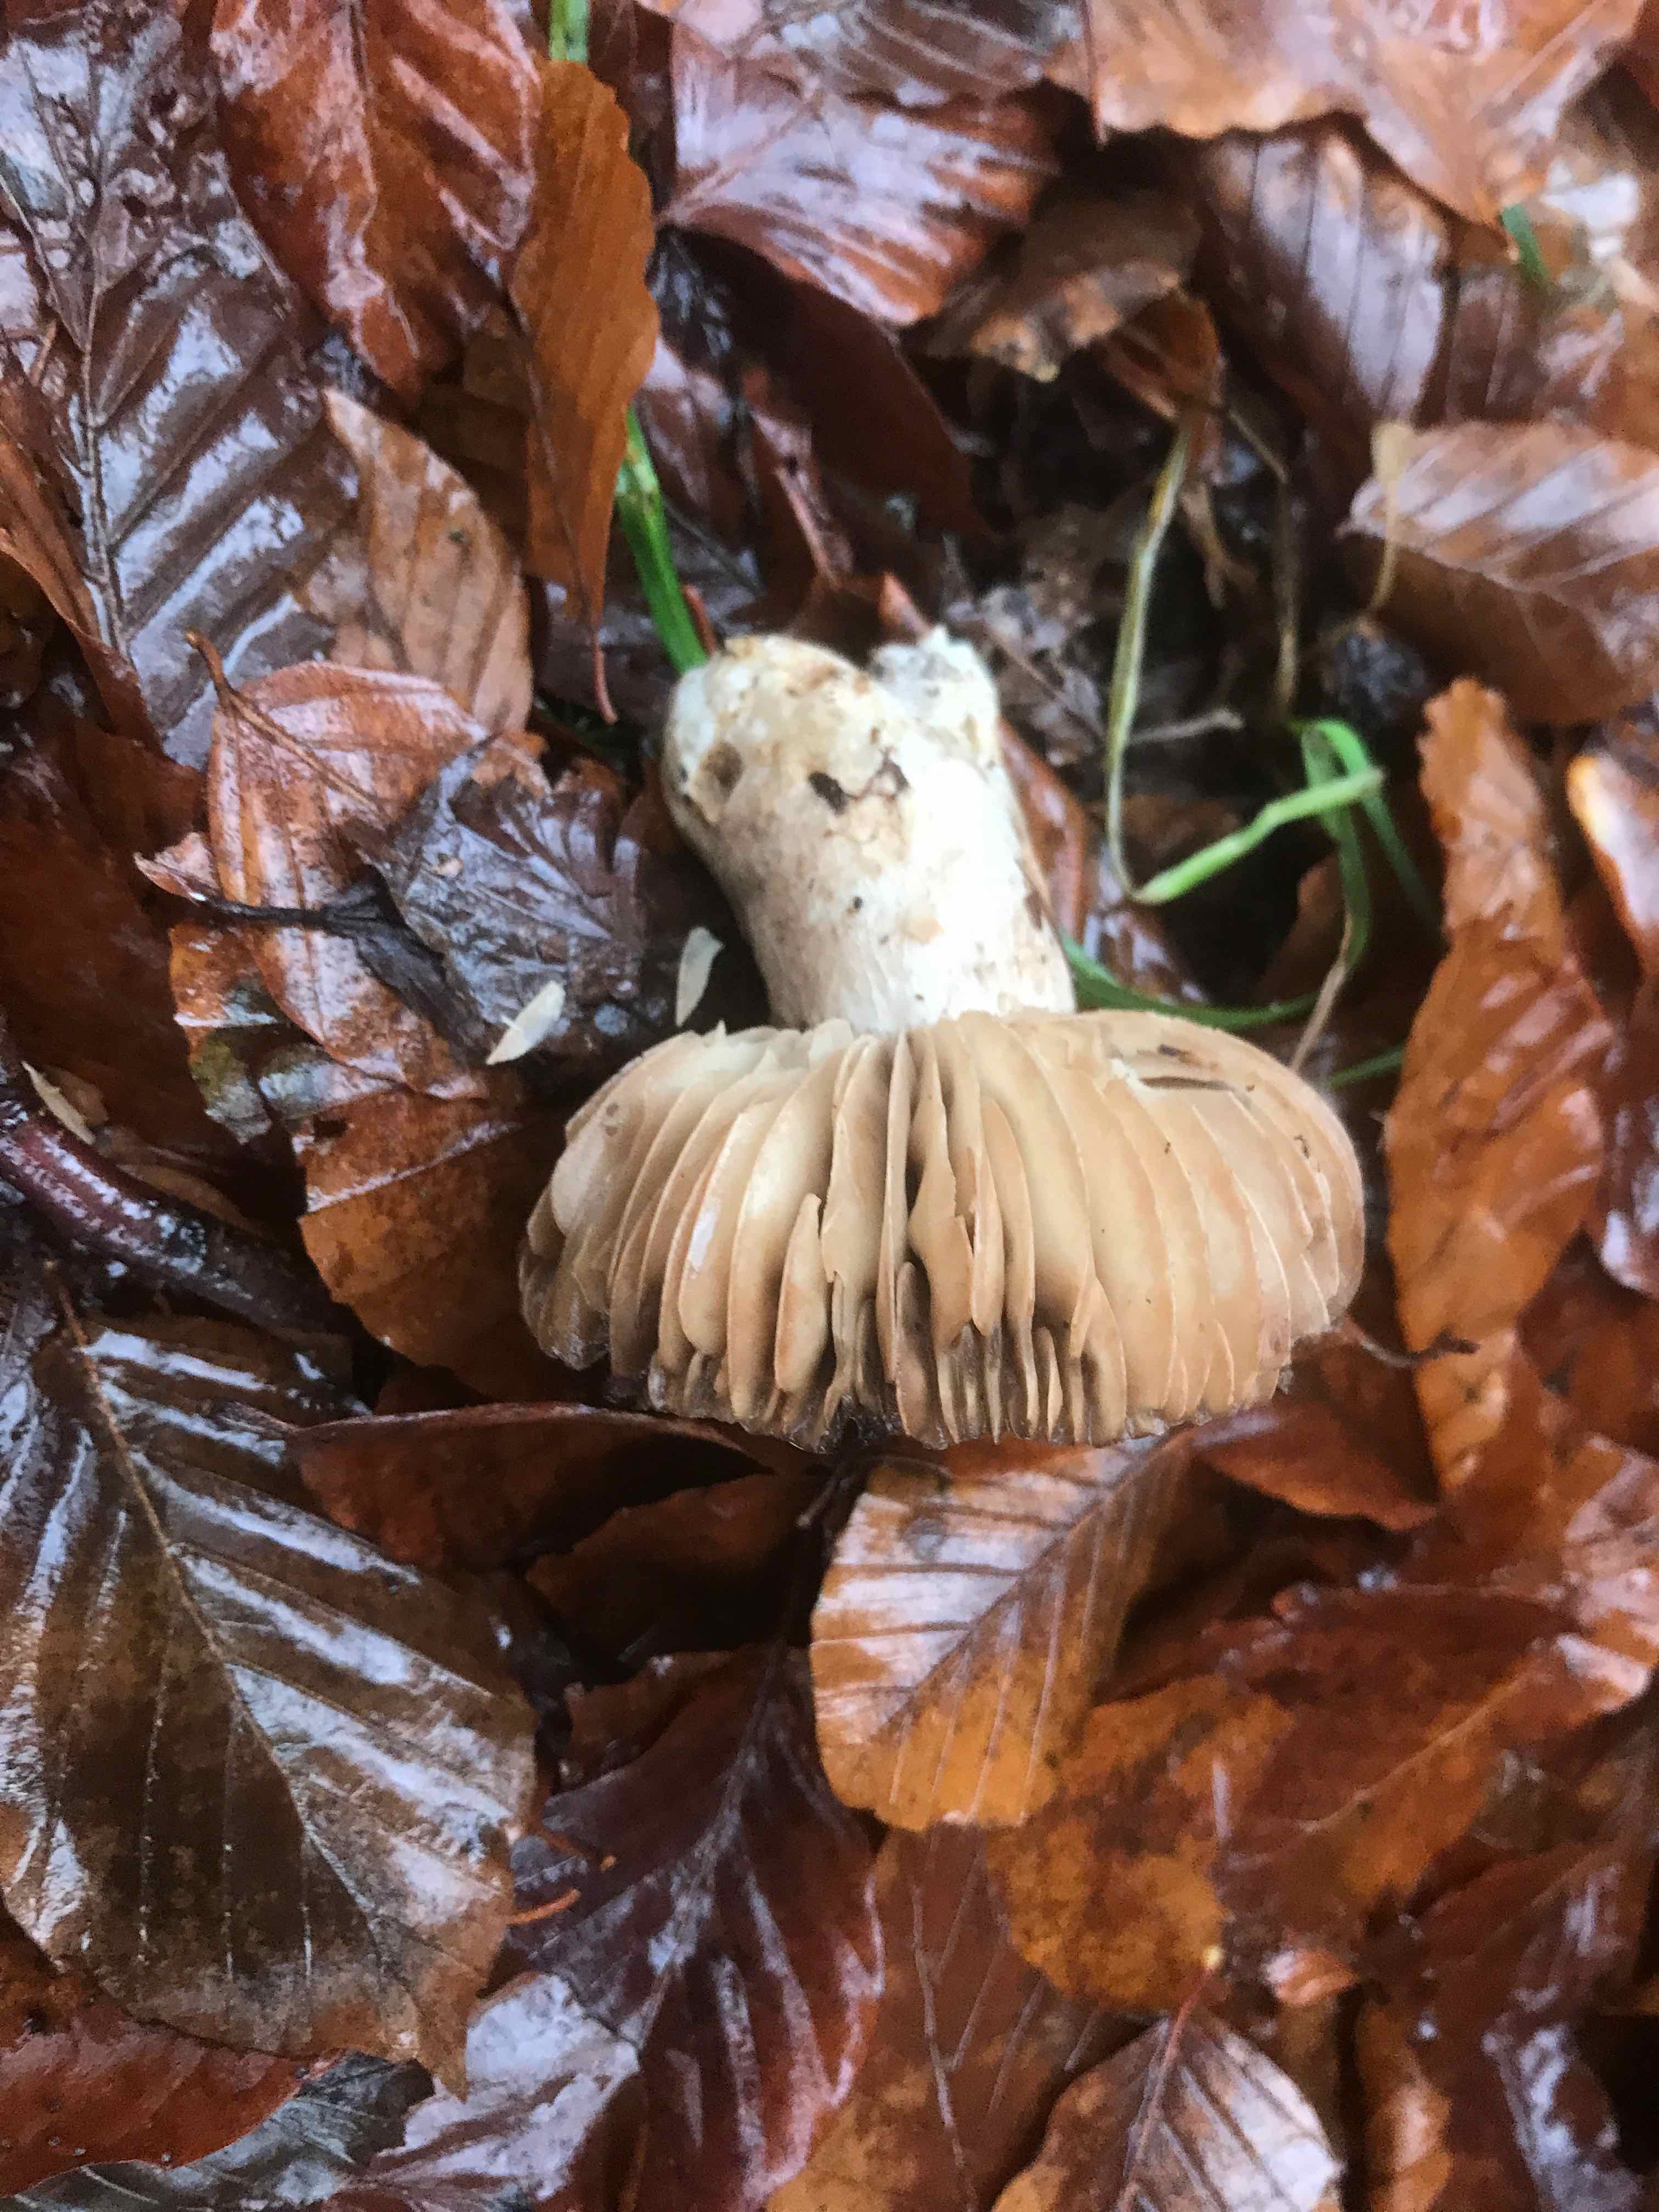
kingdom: Fungi
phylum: Basidiomycota
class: Agaricomycetes
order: Russulales
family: Russulaceae
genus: Russula
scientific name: Russula adusta
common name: sværtende skørhat
